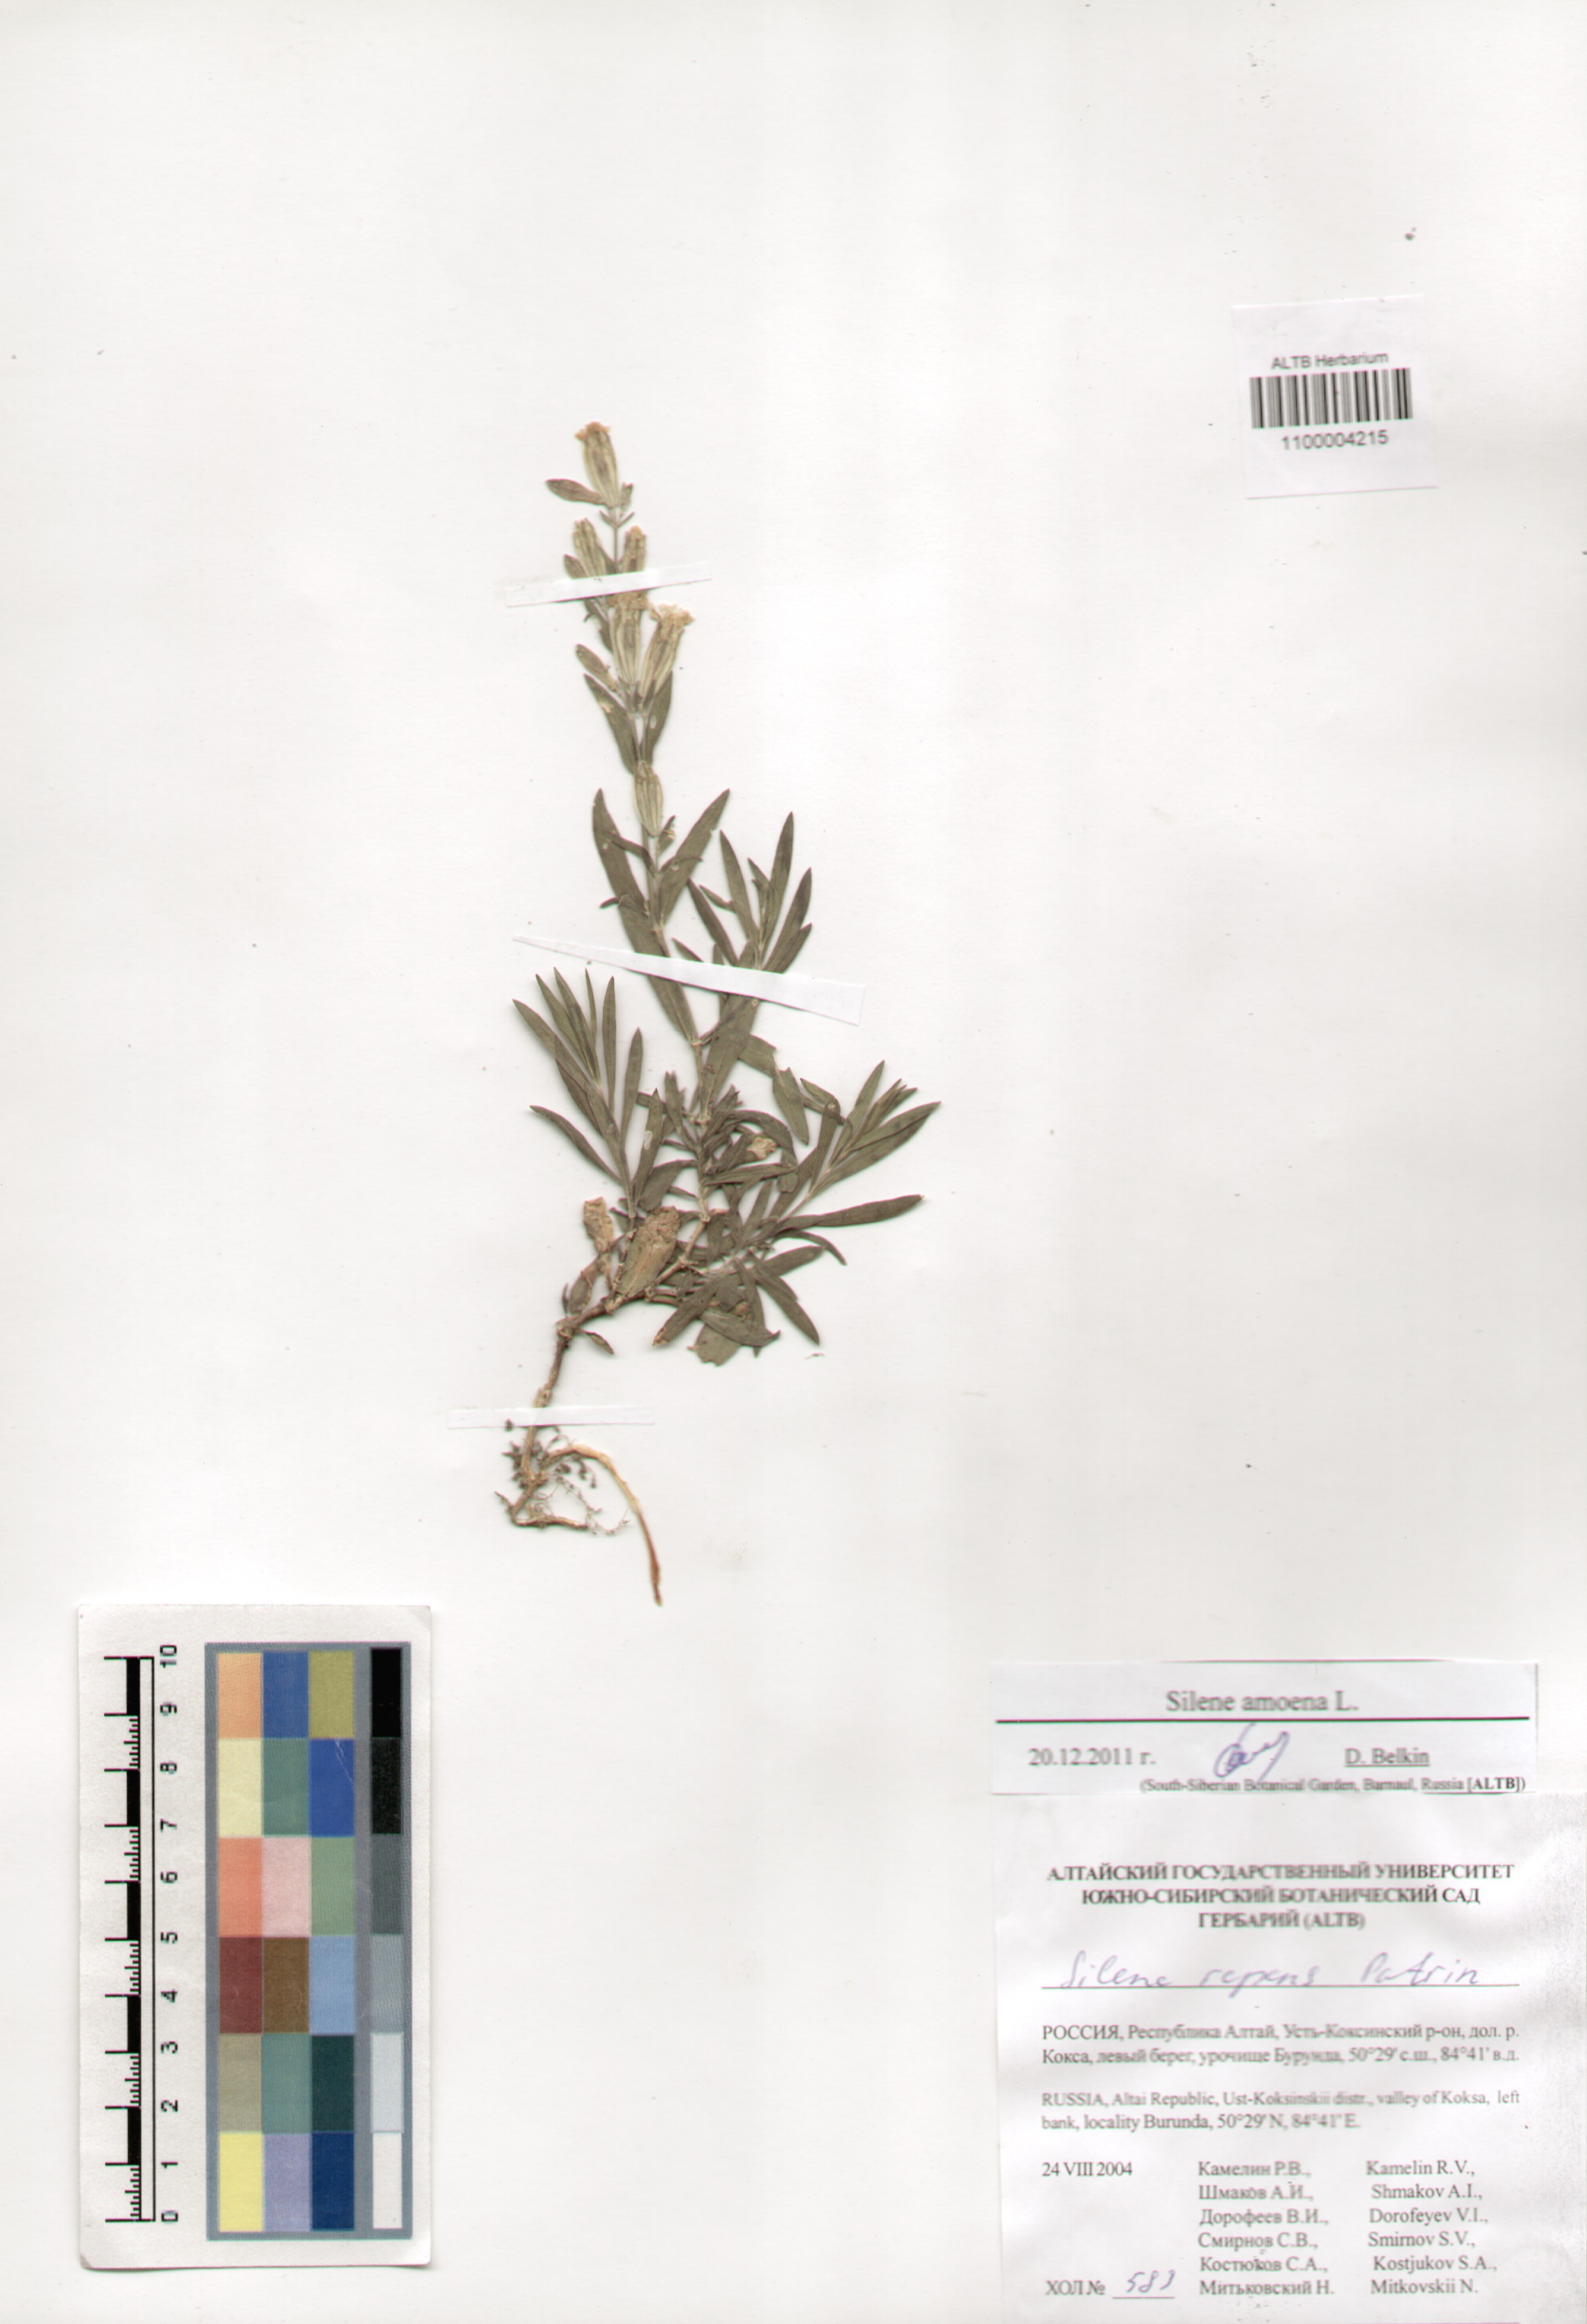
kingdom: Plantae
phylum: Tracheophyta
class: Magnoliopsida
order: Caryophyllales
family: Caryophyllaceae
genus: Silene
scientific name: Silene amoena
